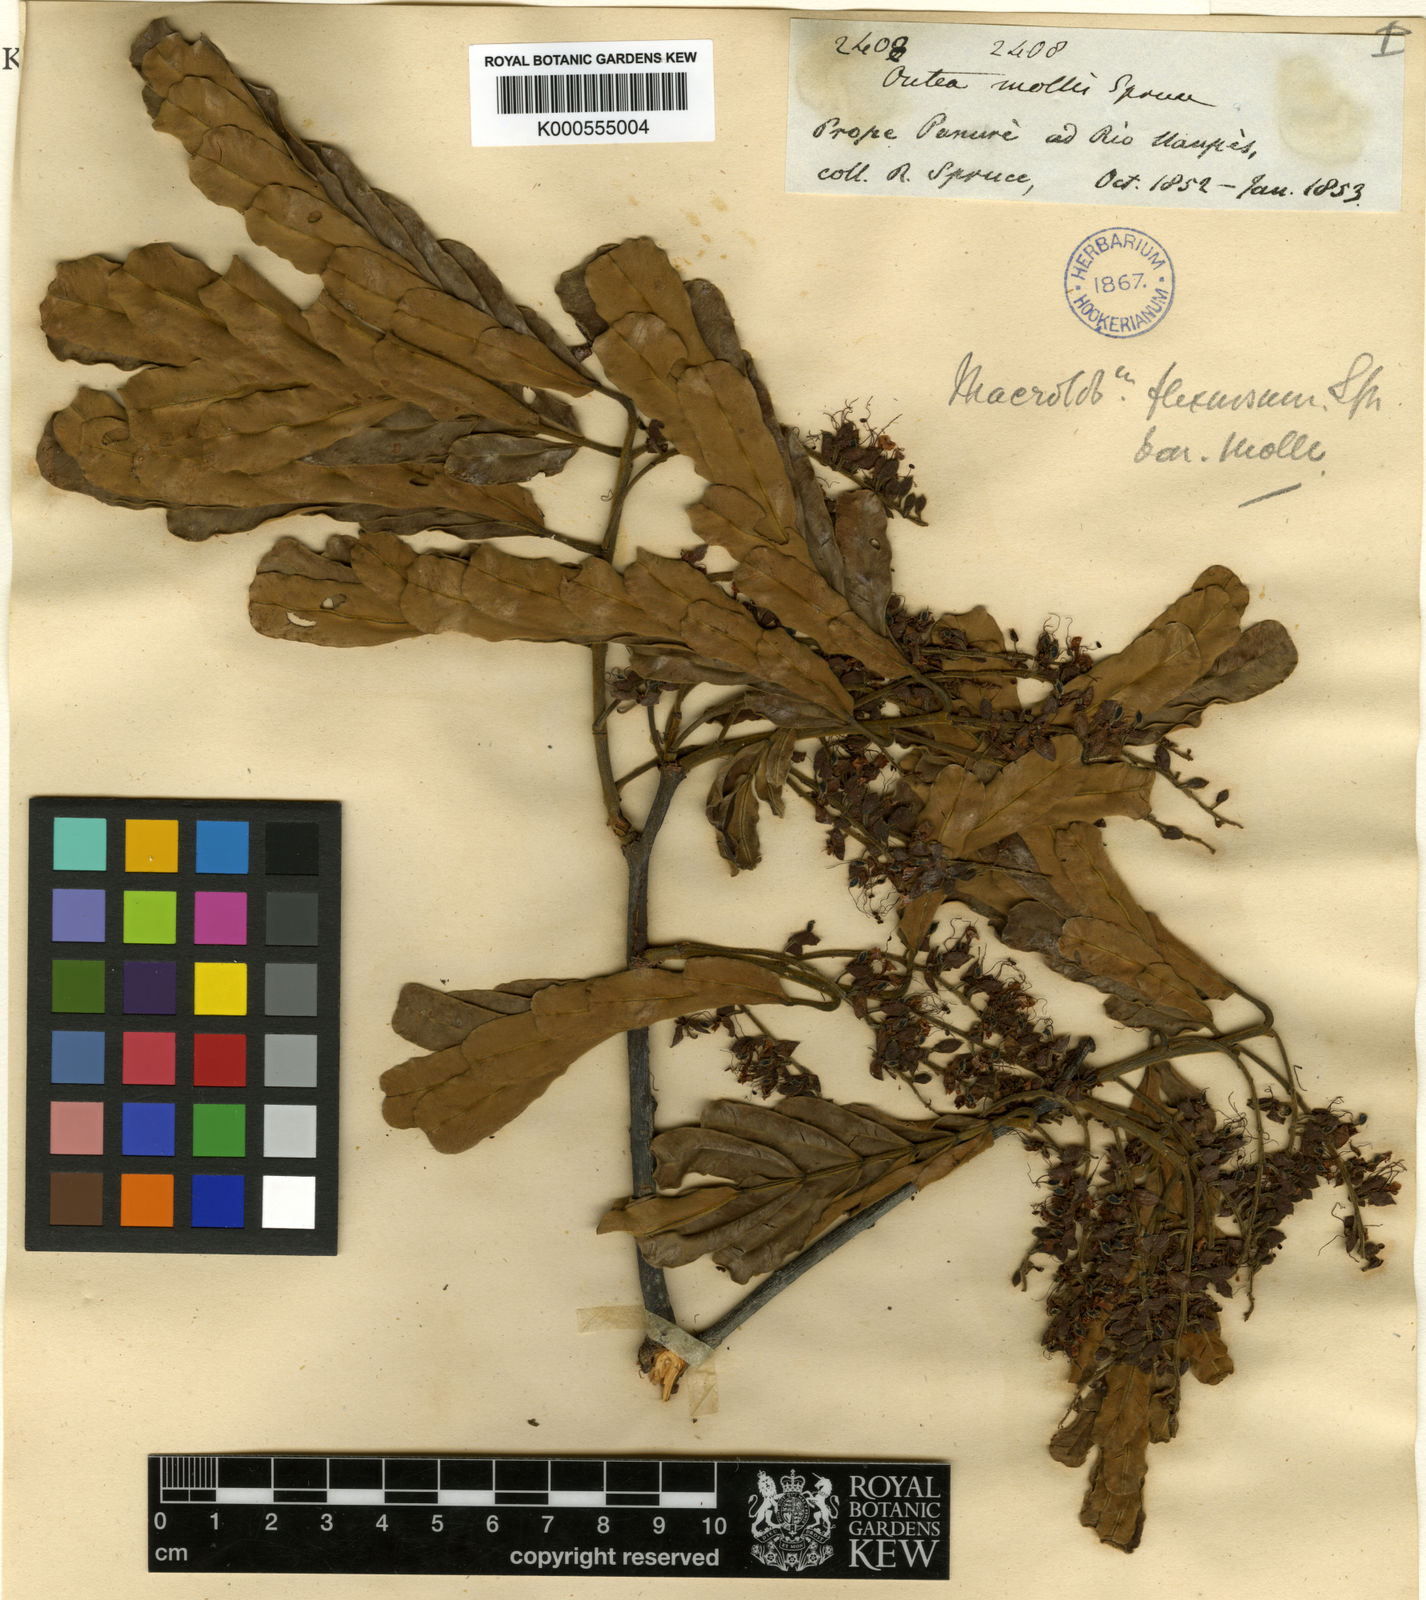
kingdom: Plantae
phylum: Tracheophyta
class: Magnoliopsida
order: Fabales
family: Fabaceae
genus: Macrolobium
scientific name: Macrolobium molle
